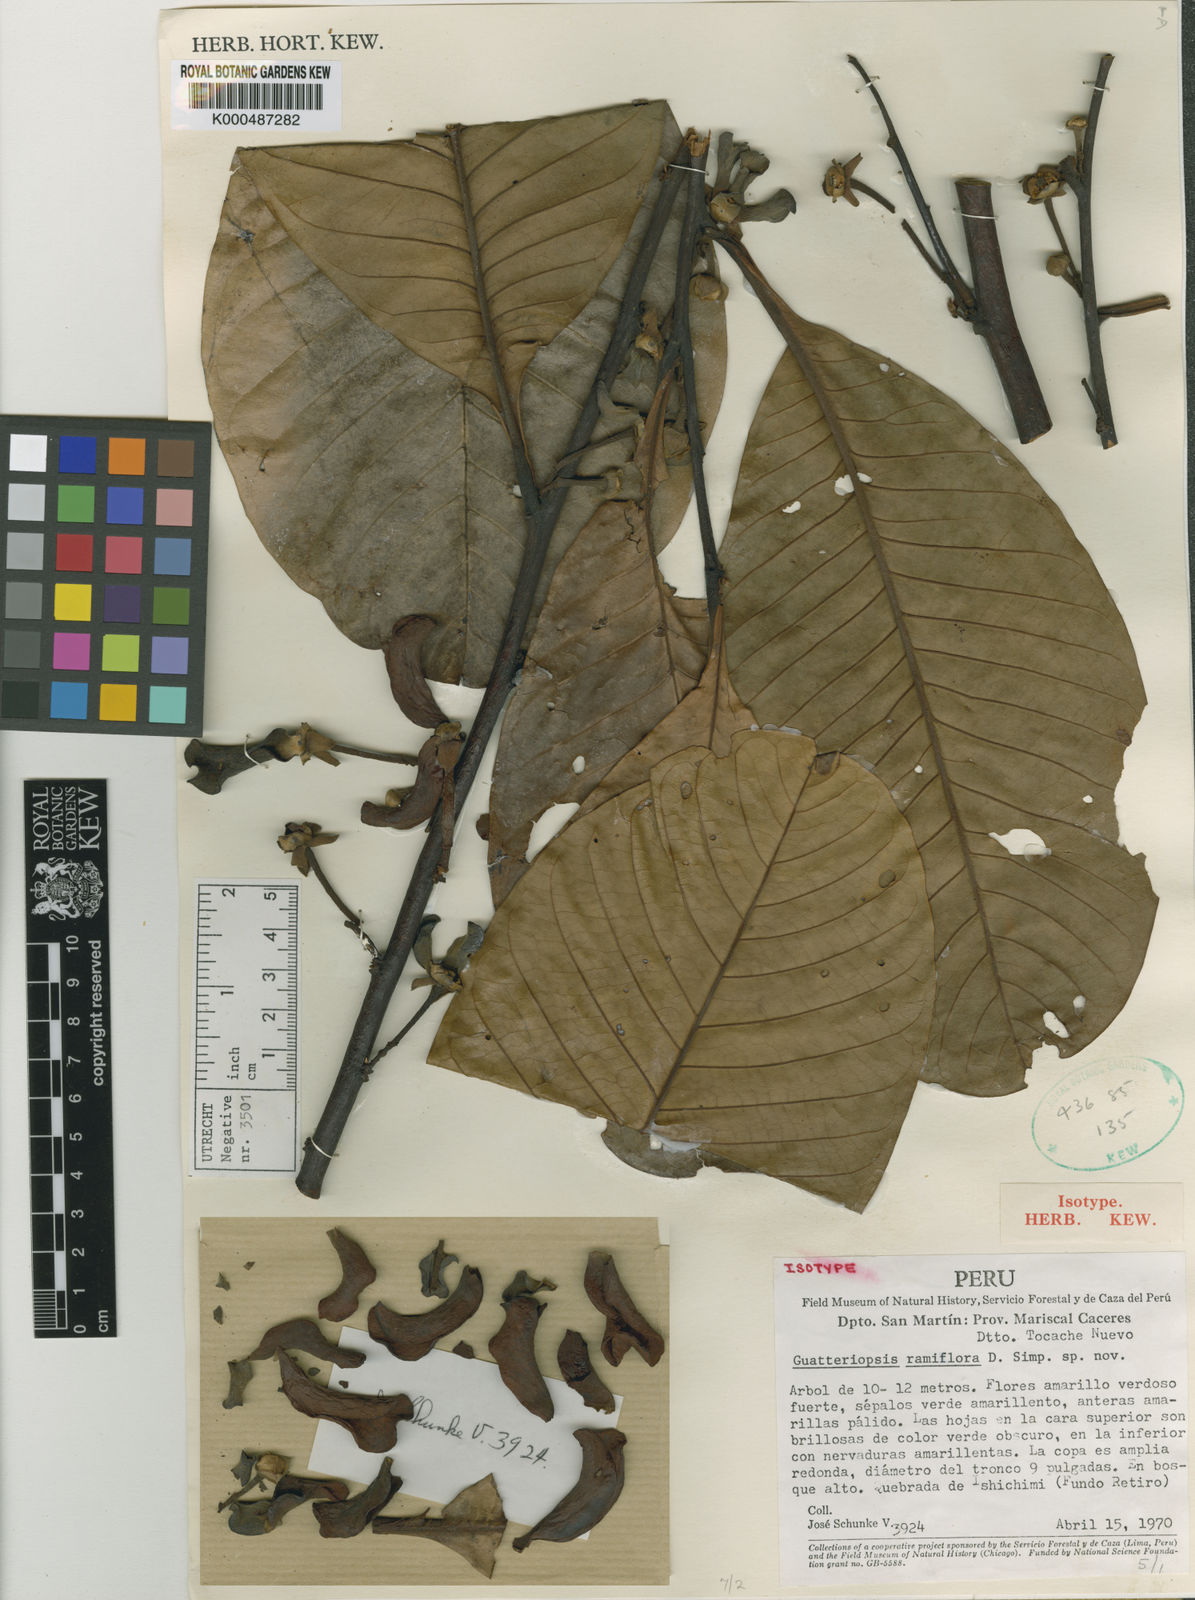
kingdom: Plantae
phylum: Tracheophyta
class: Magnoliopsida
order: Magnoliales
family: Annonaceae
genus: Guatteria
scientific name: Guatteria ramiflora
